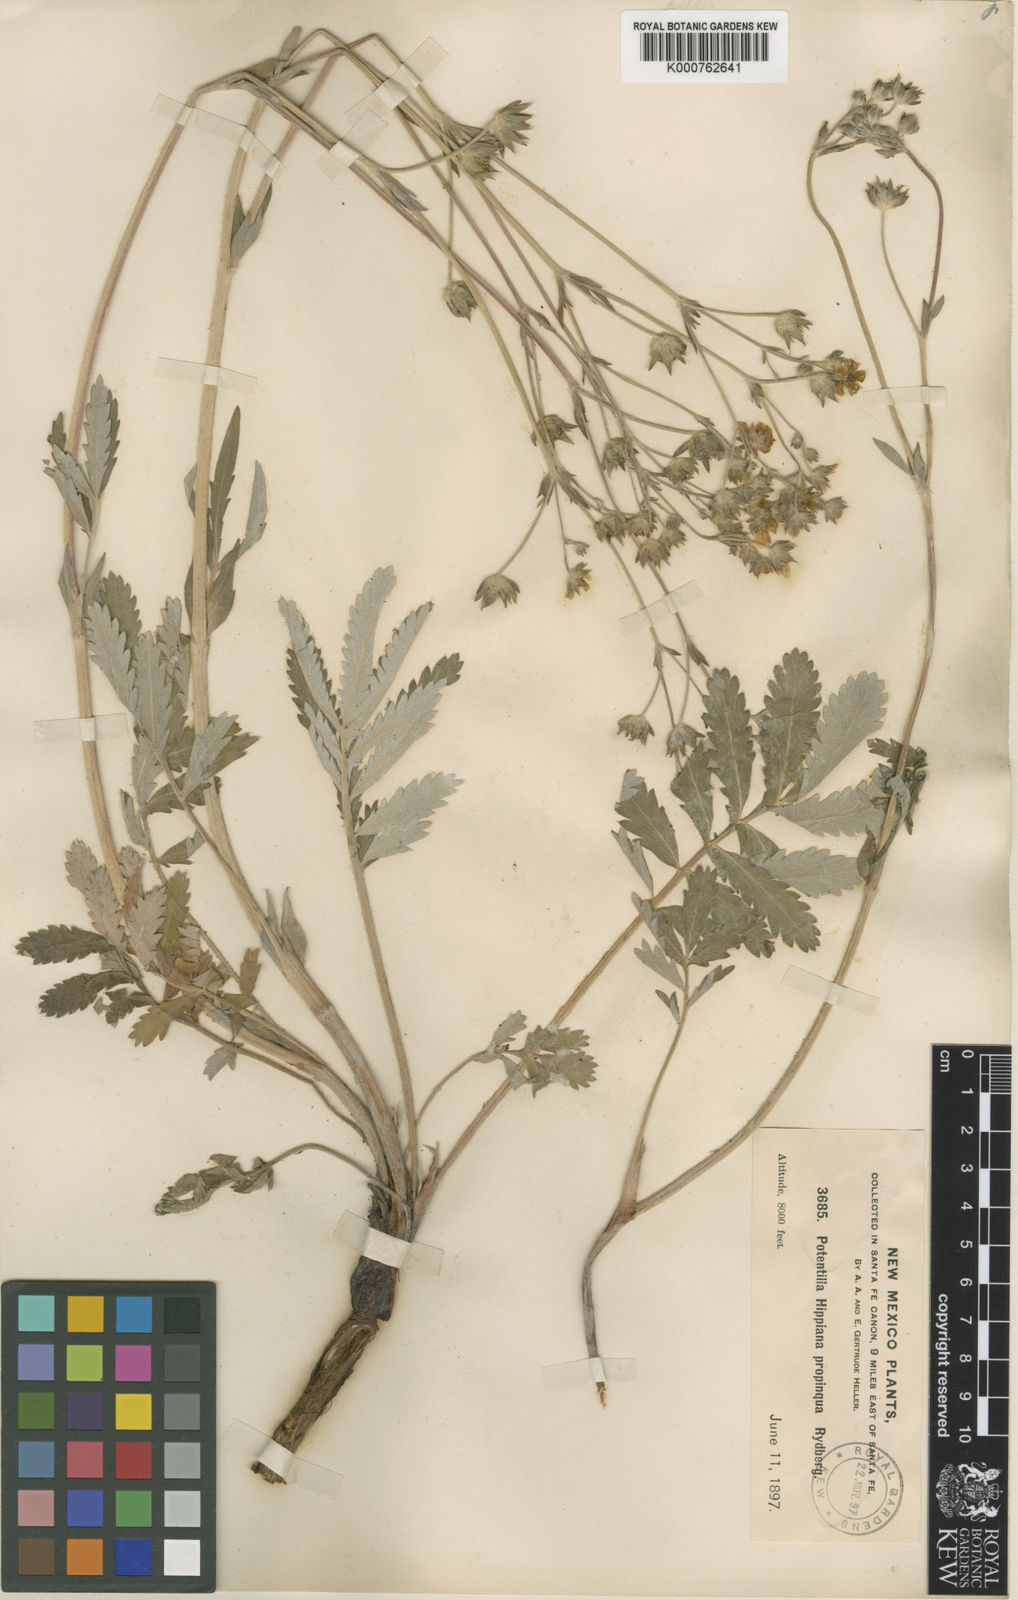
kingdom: Plantae
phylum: Tracheophyta
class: Magnoliopsida
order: Rosales
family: Rosaceae
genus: Potentilla
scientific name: Potentilla hippiana
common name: Woolly cinquefoil
